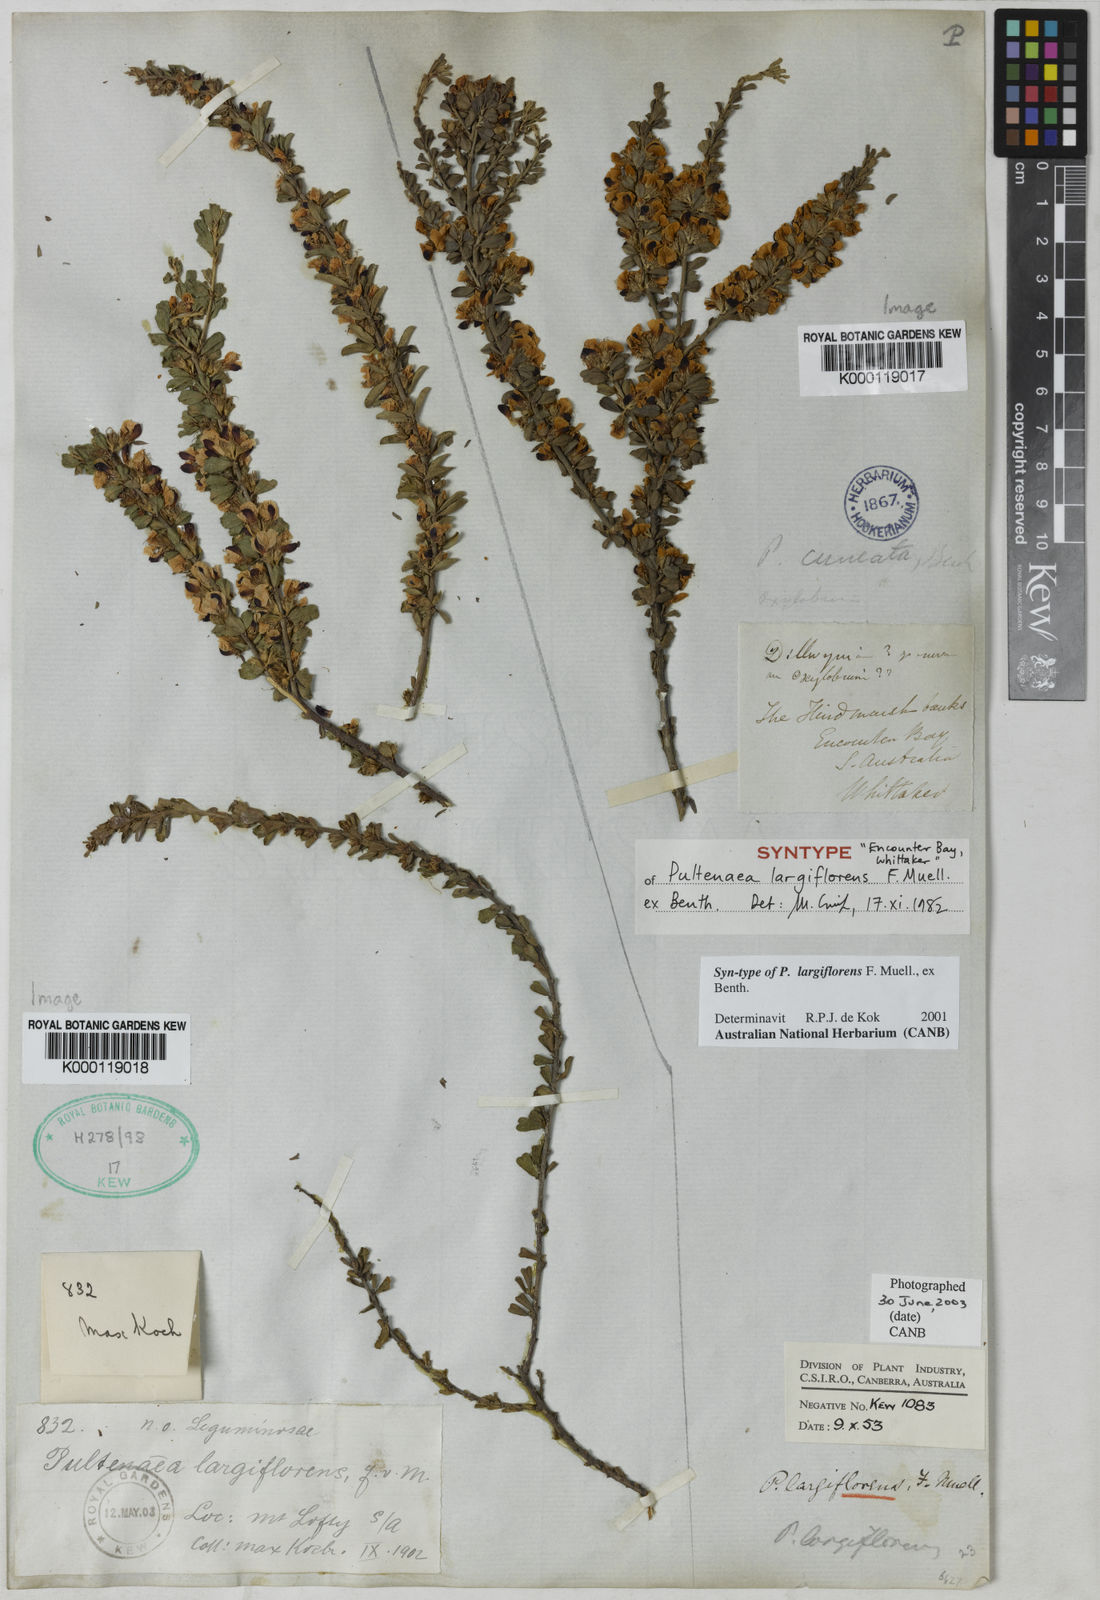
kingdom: Plantae
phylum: Tracheophyta
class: Magnoliopsida
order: Fabales
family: Fabaceae
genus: Pultenaea
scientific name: Pultenaea largiflorens
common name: Twiggy bush-pea
